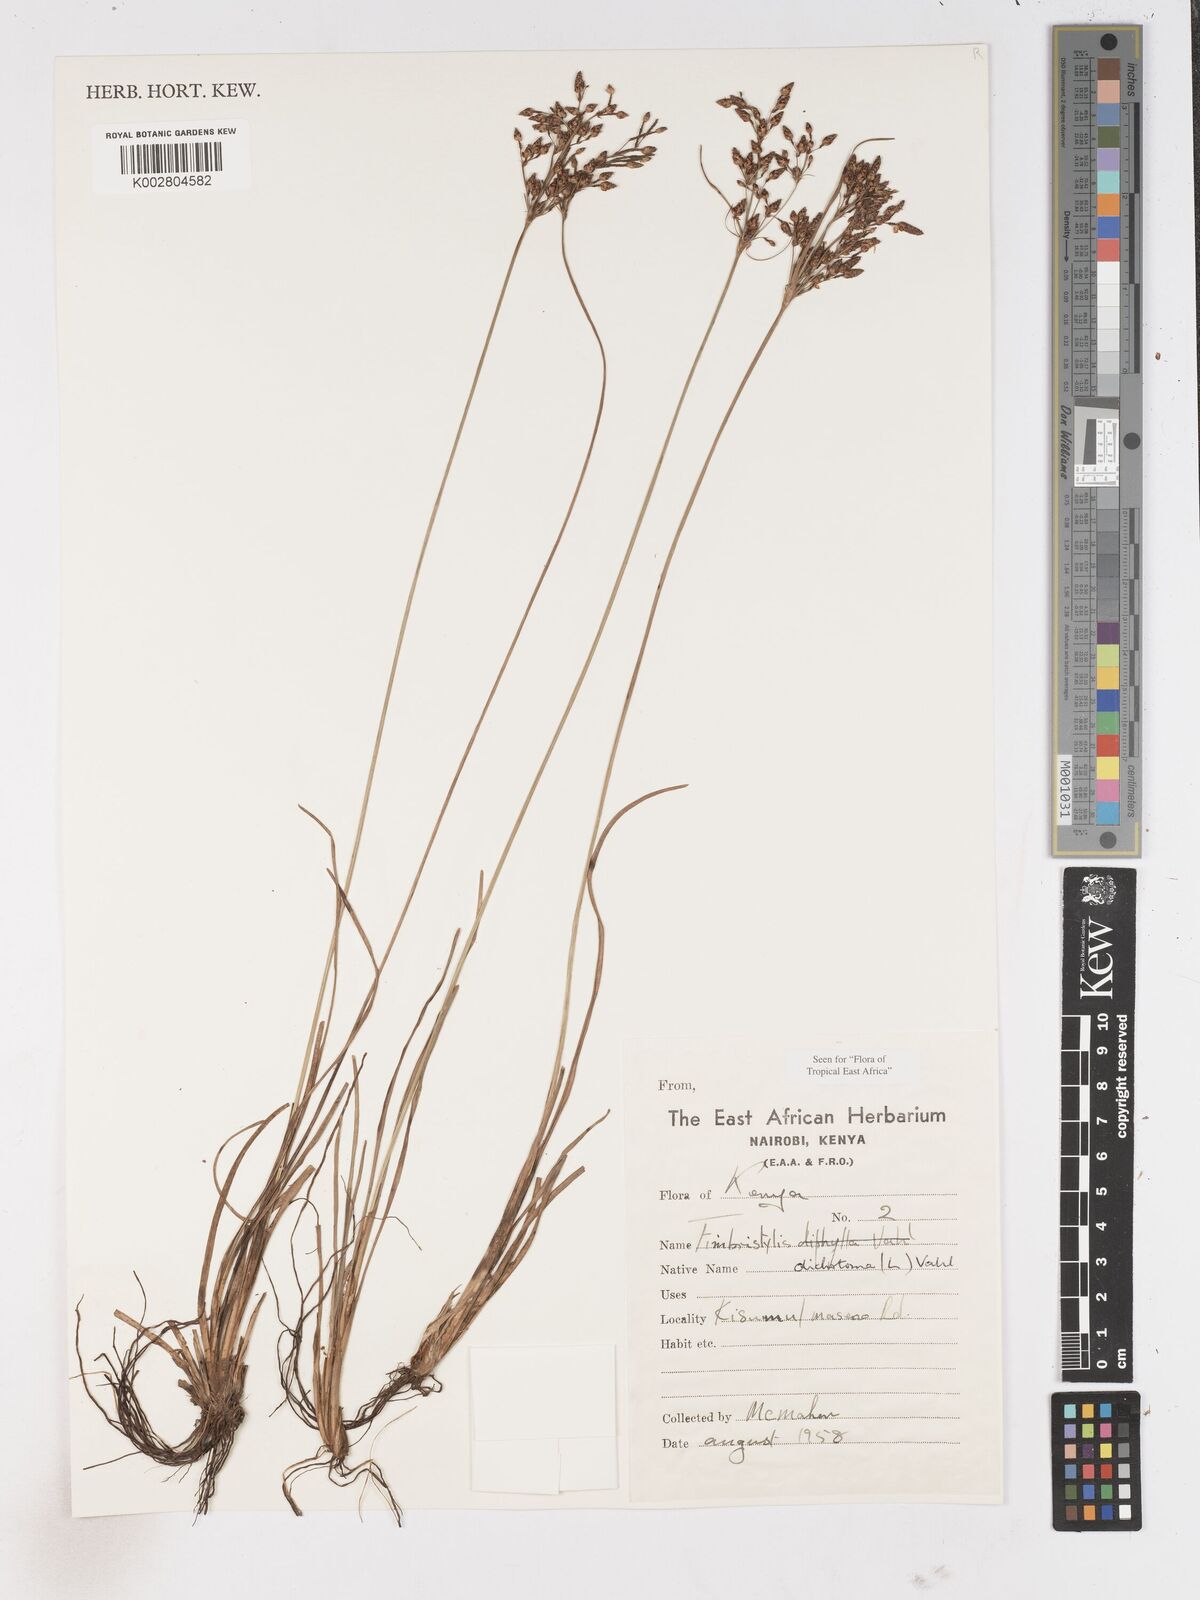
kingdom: Plantae
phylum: Tracheophyta
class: Liliopsida
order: Poales
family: Cyperaceae
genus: Fimbristylis
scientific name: Fimbristylis dichotoma
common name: Forked fimbry
